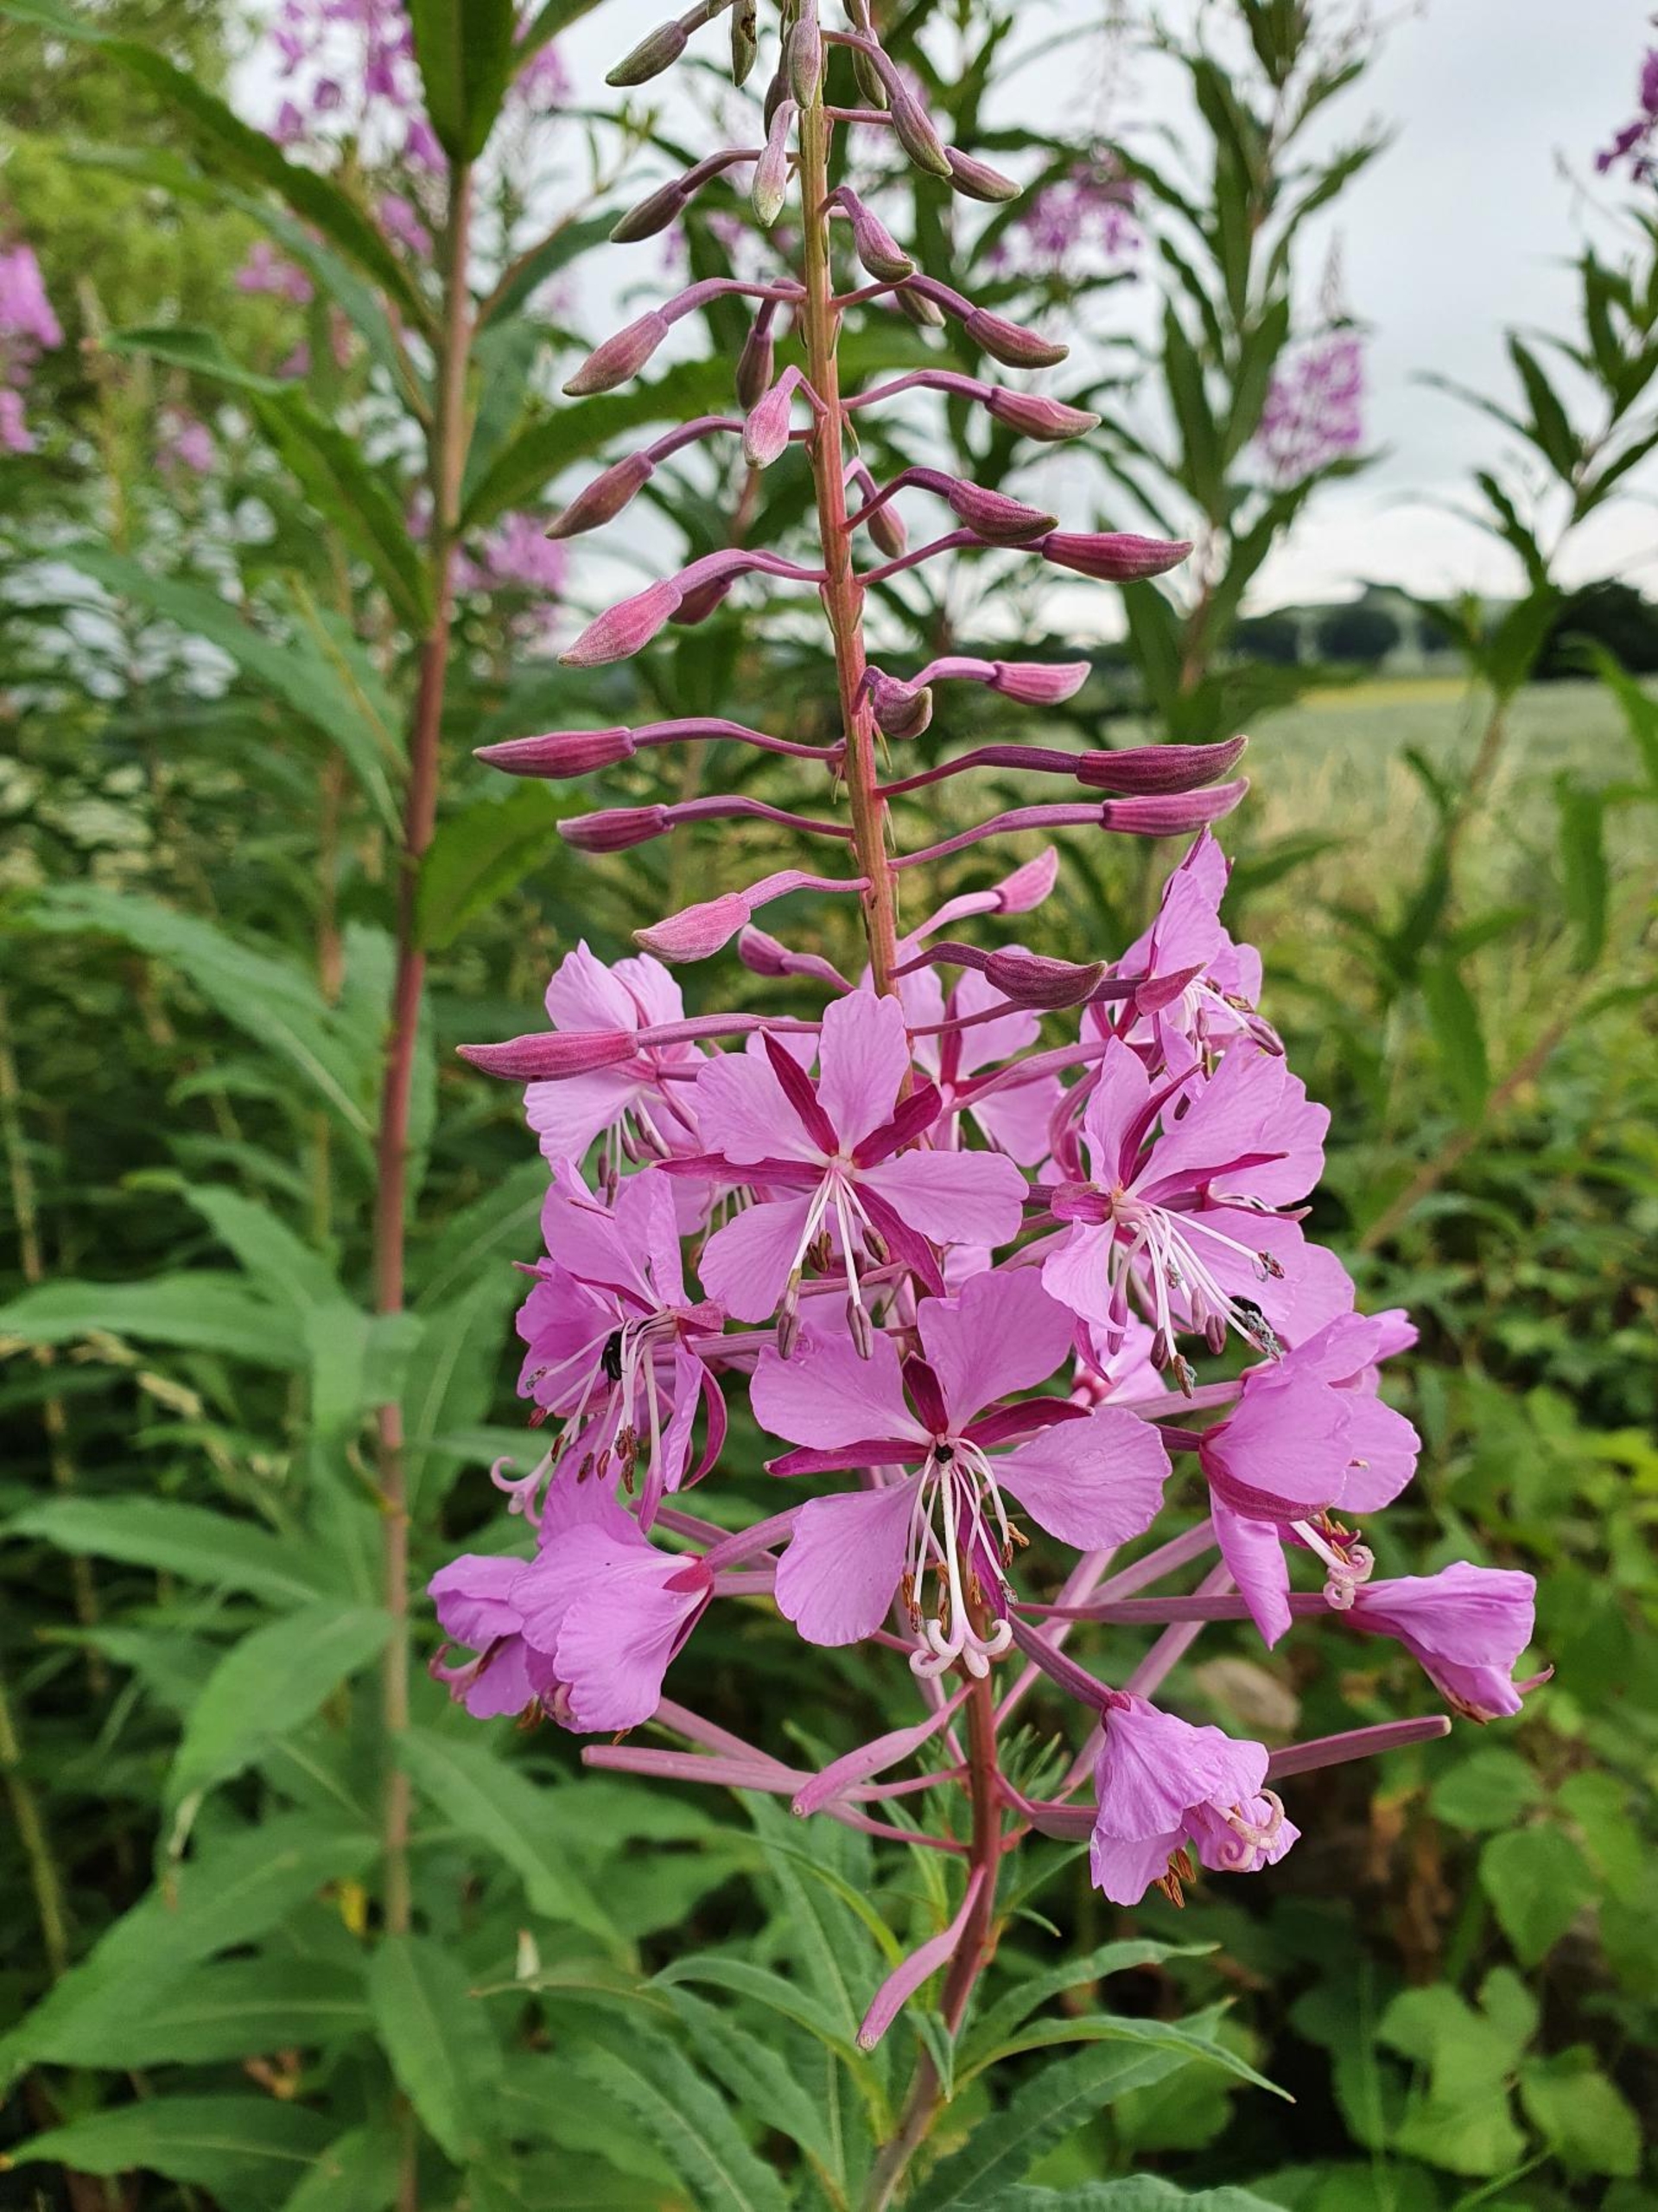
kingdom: Plantae
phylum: Tracheophyta
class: Magnoliopsida
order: Myrtales
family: Onagraceae
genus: Chamaenerion
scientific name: Chamaenerion angustifolium
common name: Gederams
